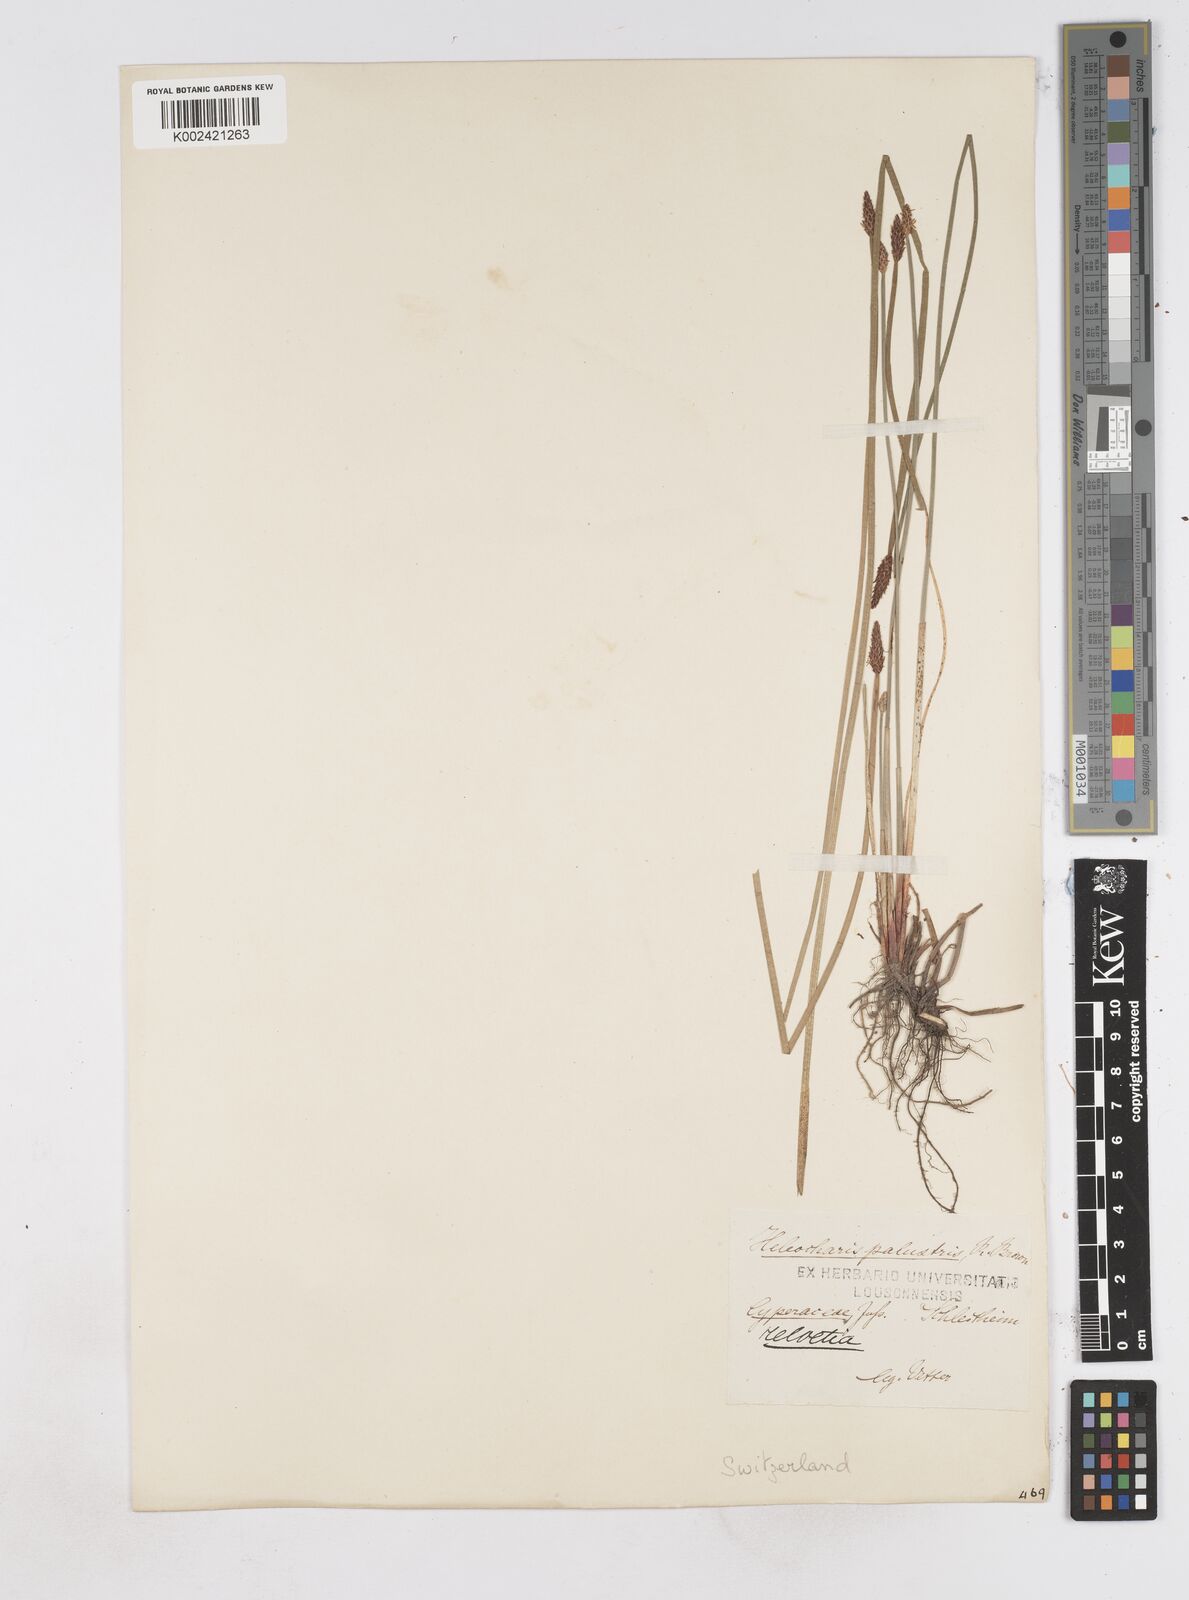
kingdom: Plantae
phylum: Tracheophyta
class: Liliopsida
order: Poales
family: Cyperaceae
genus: Eleocharis
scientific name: Eleocharis palustris
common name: Common spike-rush
